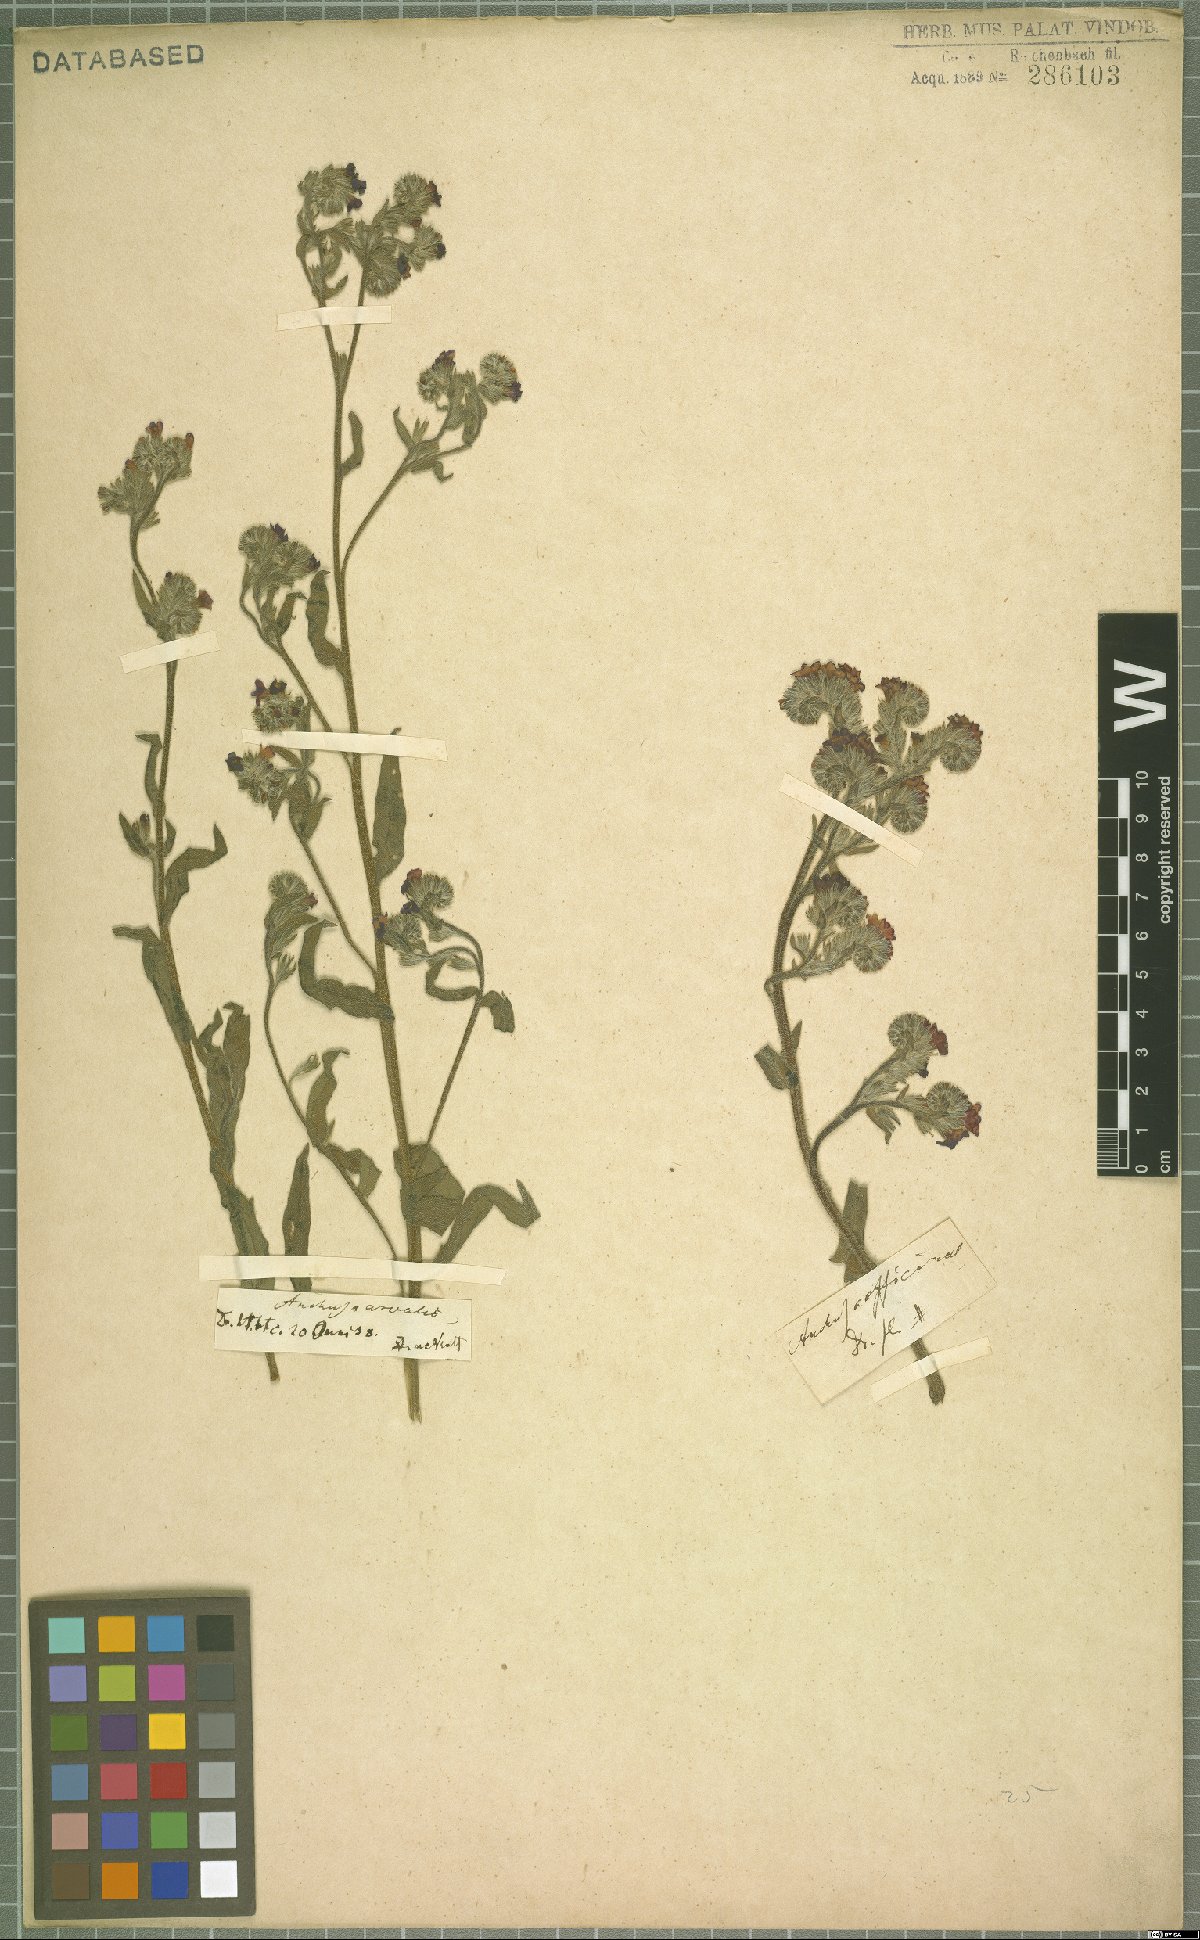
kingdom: Plantae
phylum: Tracheophyta
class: Magnoliopsida
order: Boraginales
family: Boraginaceae
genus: Anchusa
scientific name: Anchusa officinalis
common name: Alkanet
